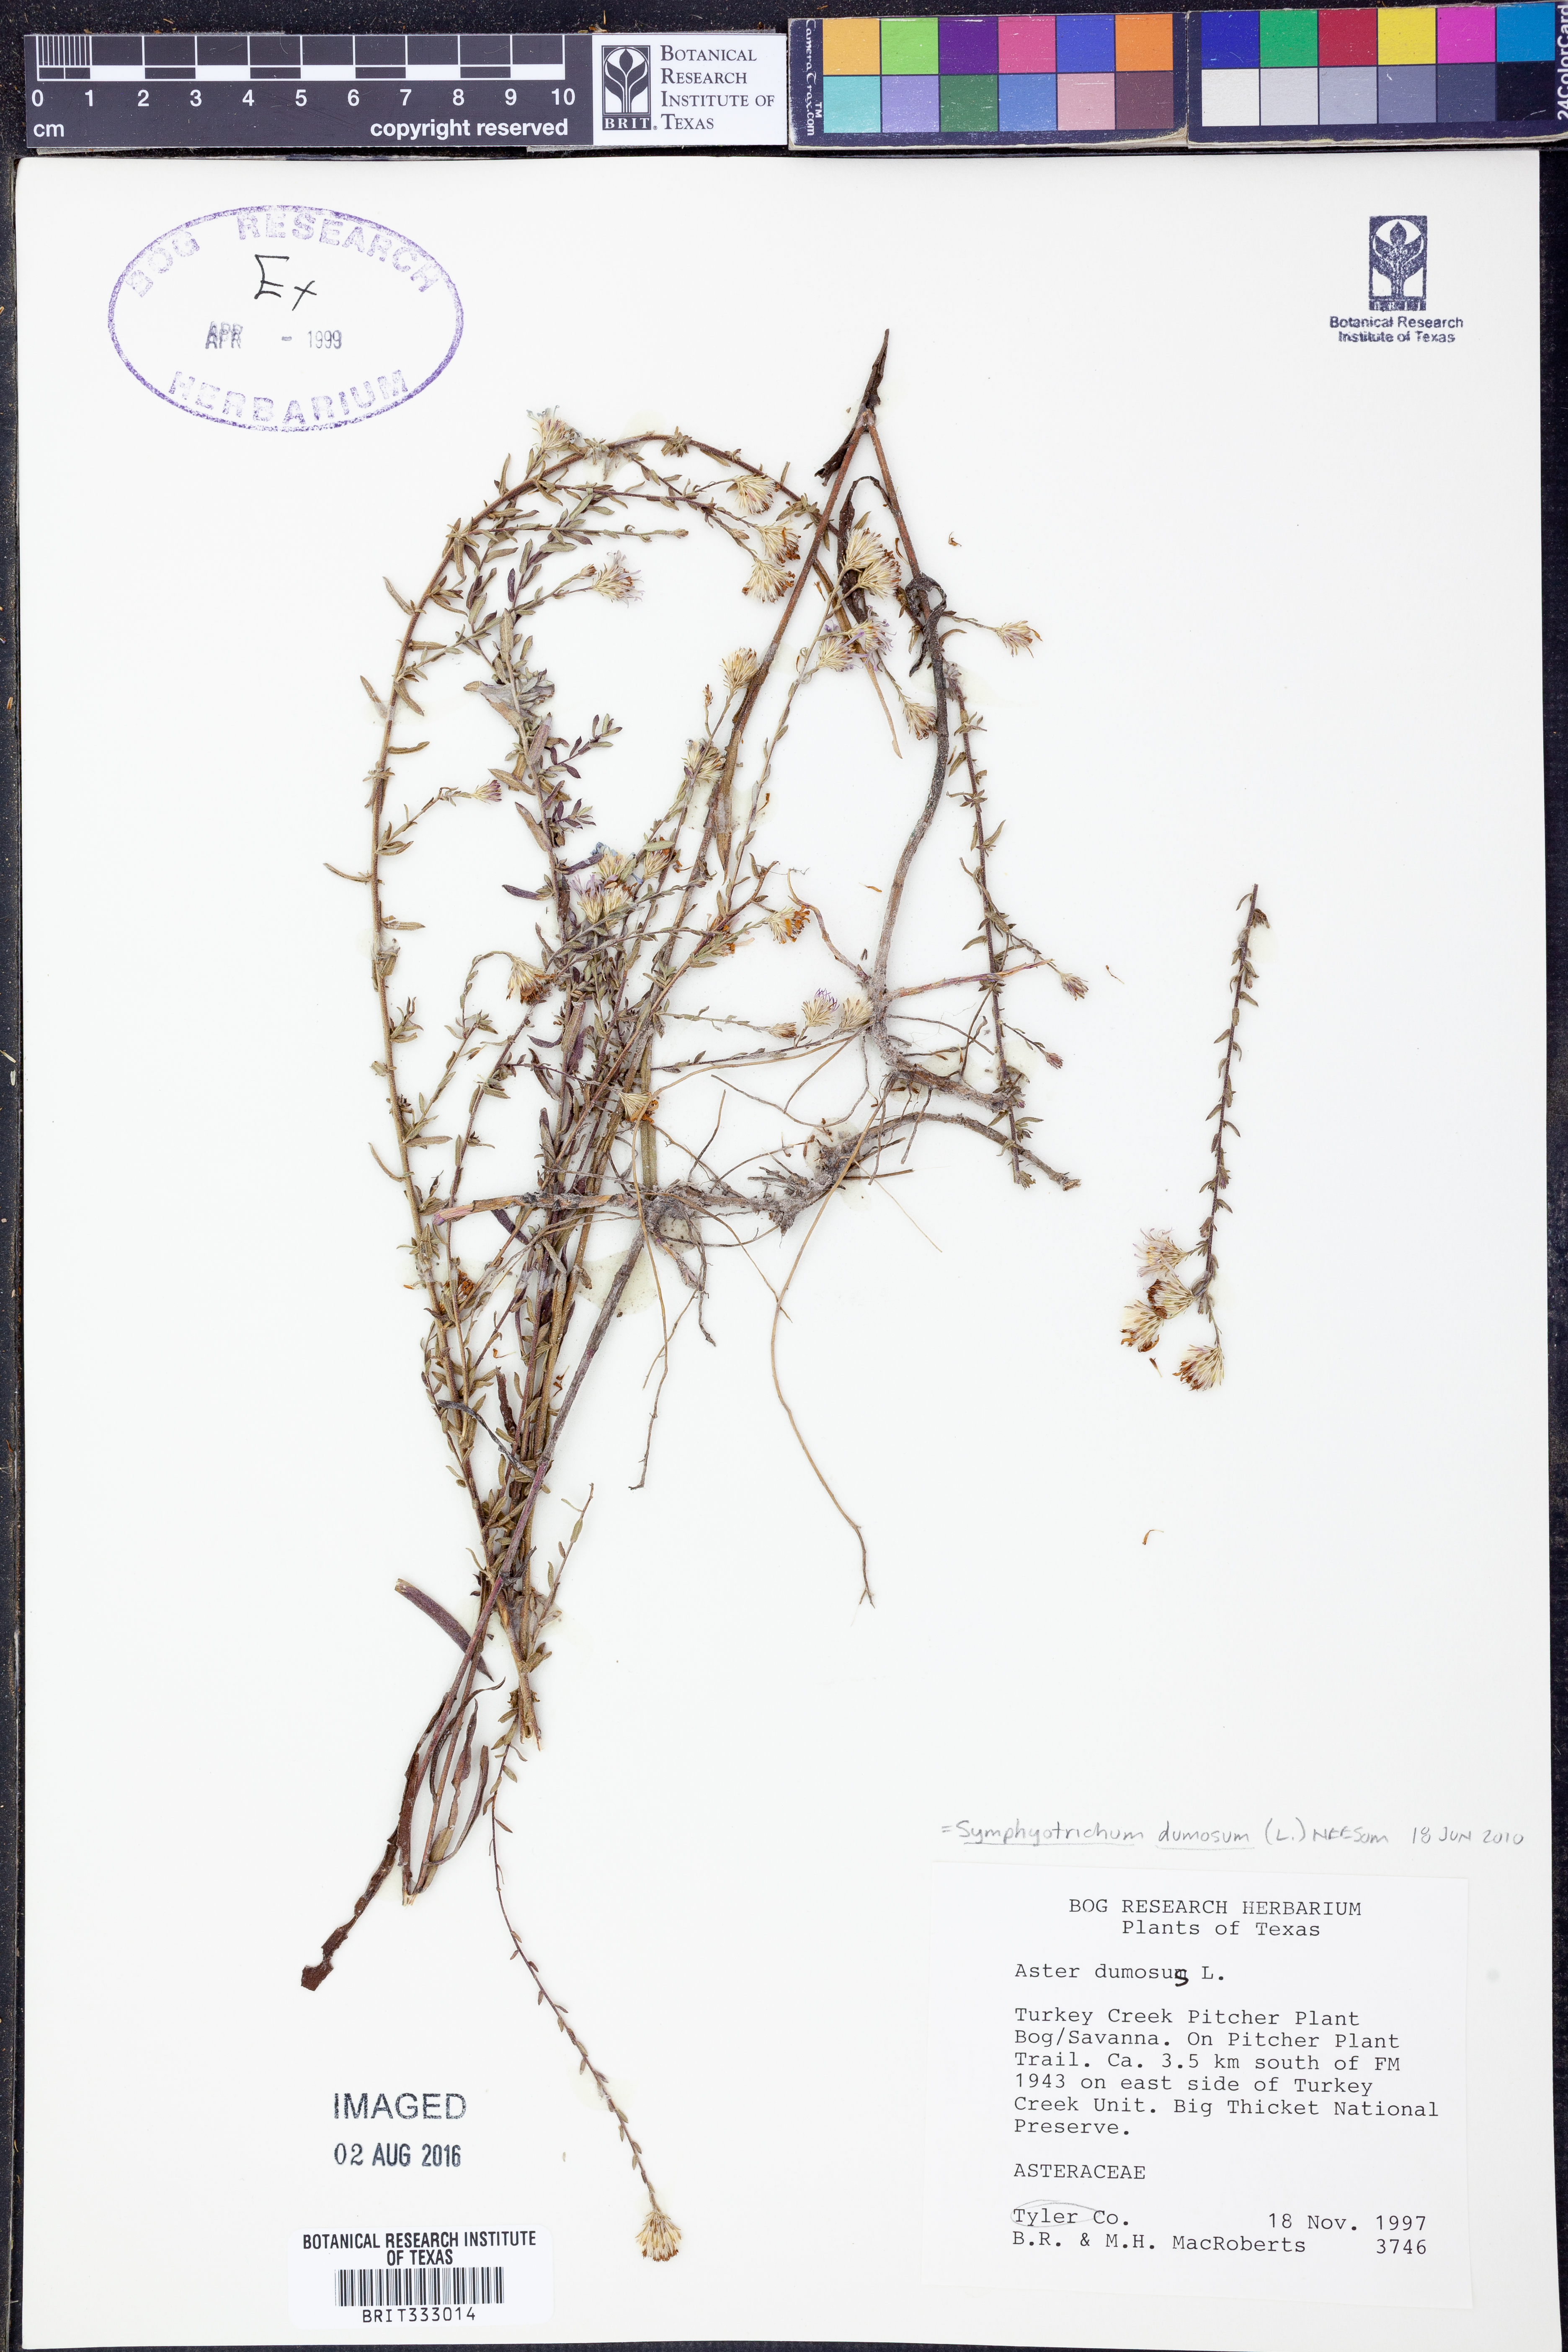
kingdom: Plantae
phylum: Tracheophyta
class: Magnoliopsida
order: Asterales
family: Asteraceae
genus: Symphyotrichum
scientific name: Symphyotrichum dumosum
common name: Bushy aster
